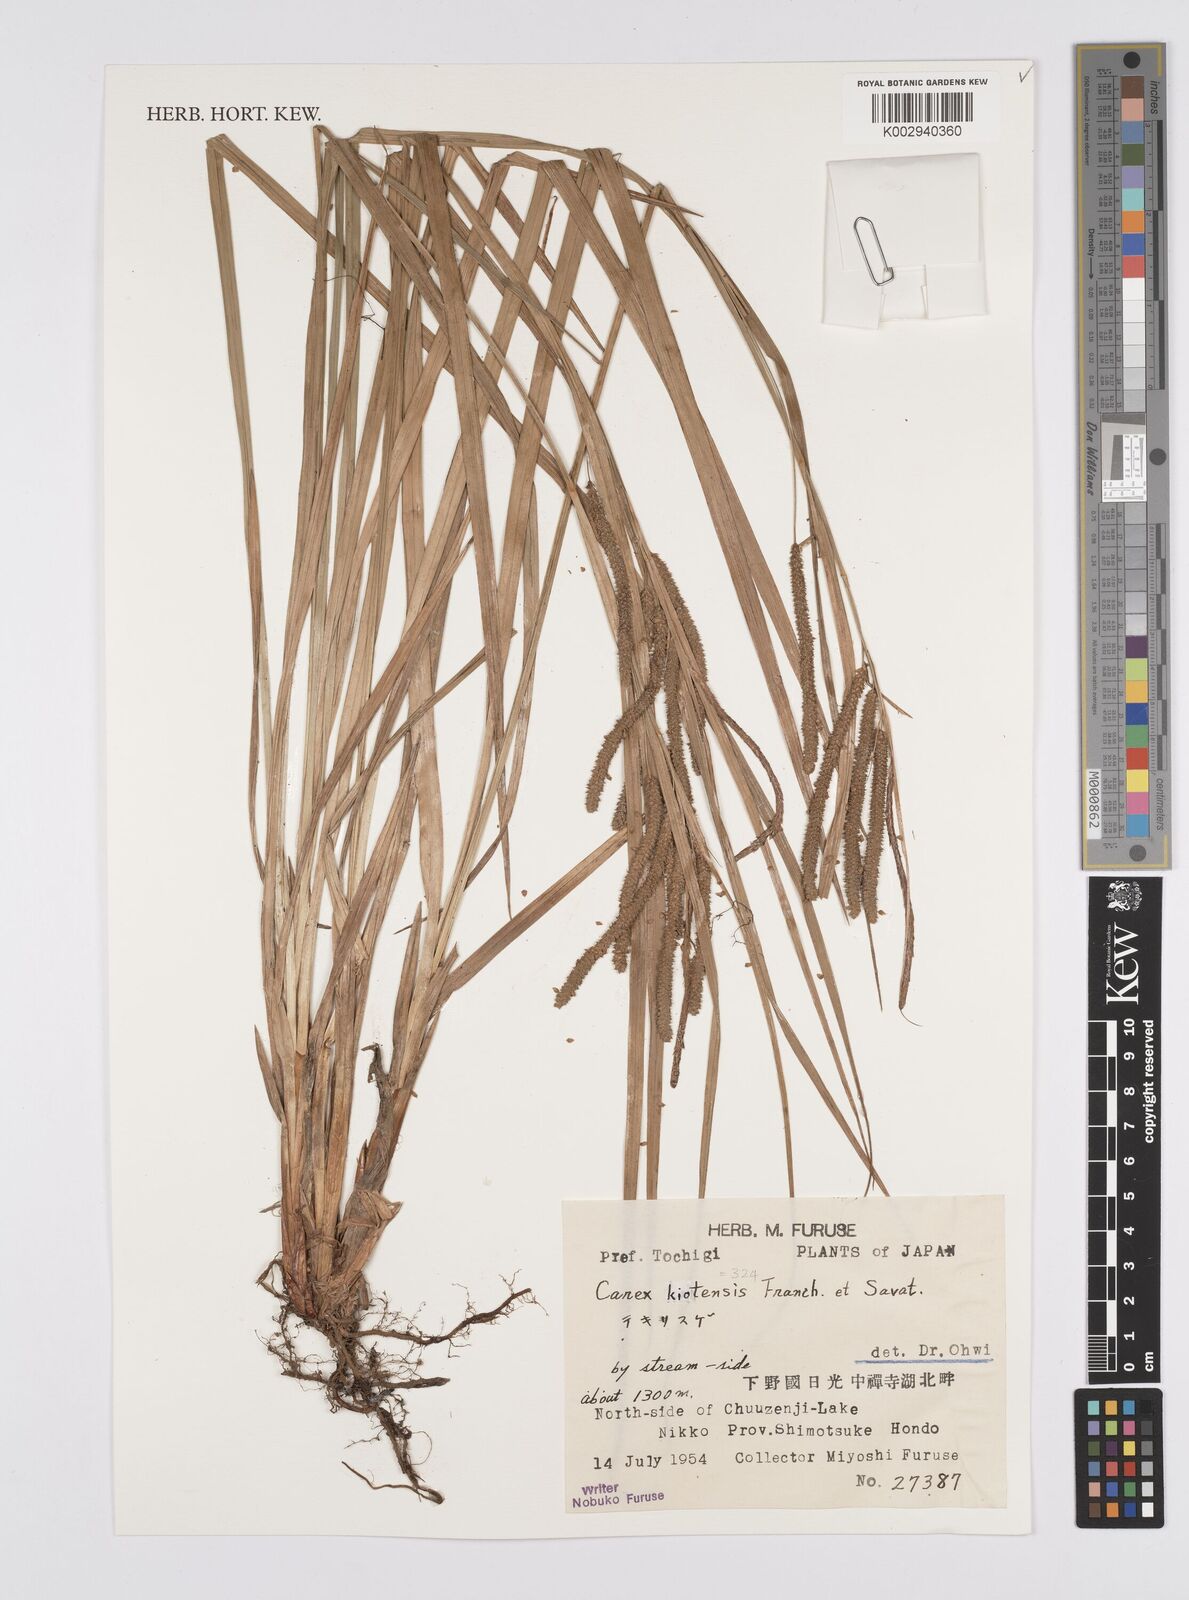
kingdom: Plantae
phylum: Tracheophyta
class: Liliopsida
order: Poales
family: Cyperaceae
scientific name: Cyperaceae
